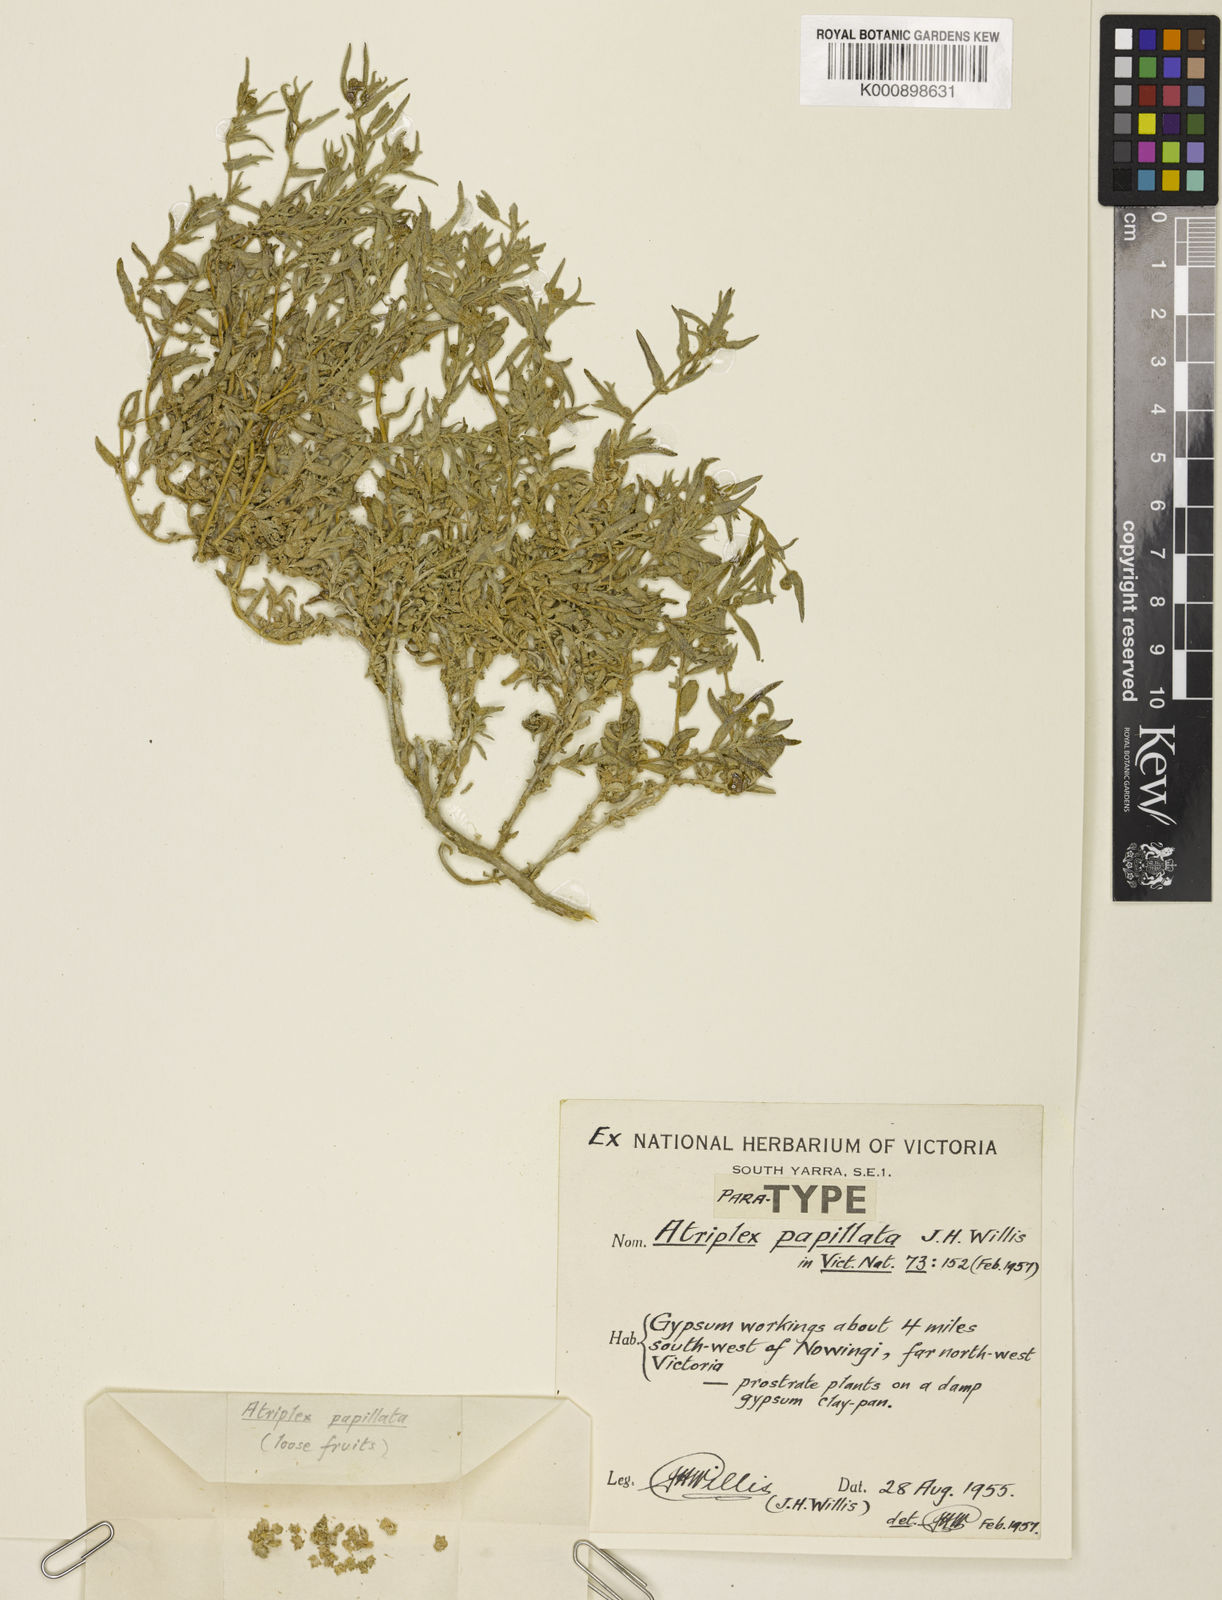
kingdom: Plantae
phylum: Tracheophyta
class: Magnoliopsida
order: Caryophyllales
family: Amaranthaceae
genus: Atriplex
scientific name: Atriplex papillata
